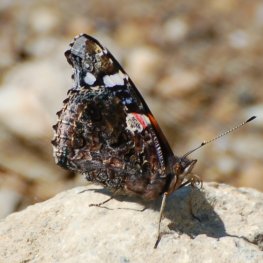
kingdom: Animalia
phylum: Arthropoda
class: Insecta
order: Lepidoptera
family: Nymphalidae
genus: Vanessa
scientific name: Vanessa atalanta
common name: Red Admiral
